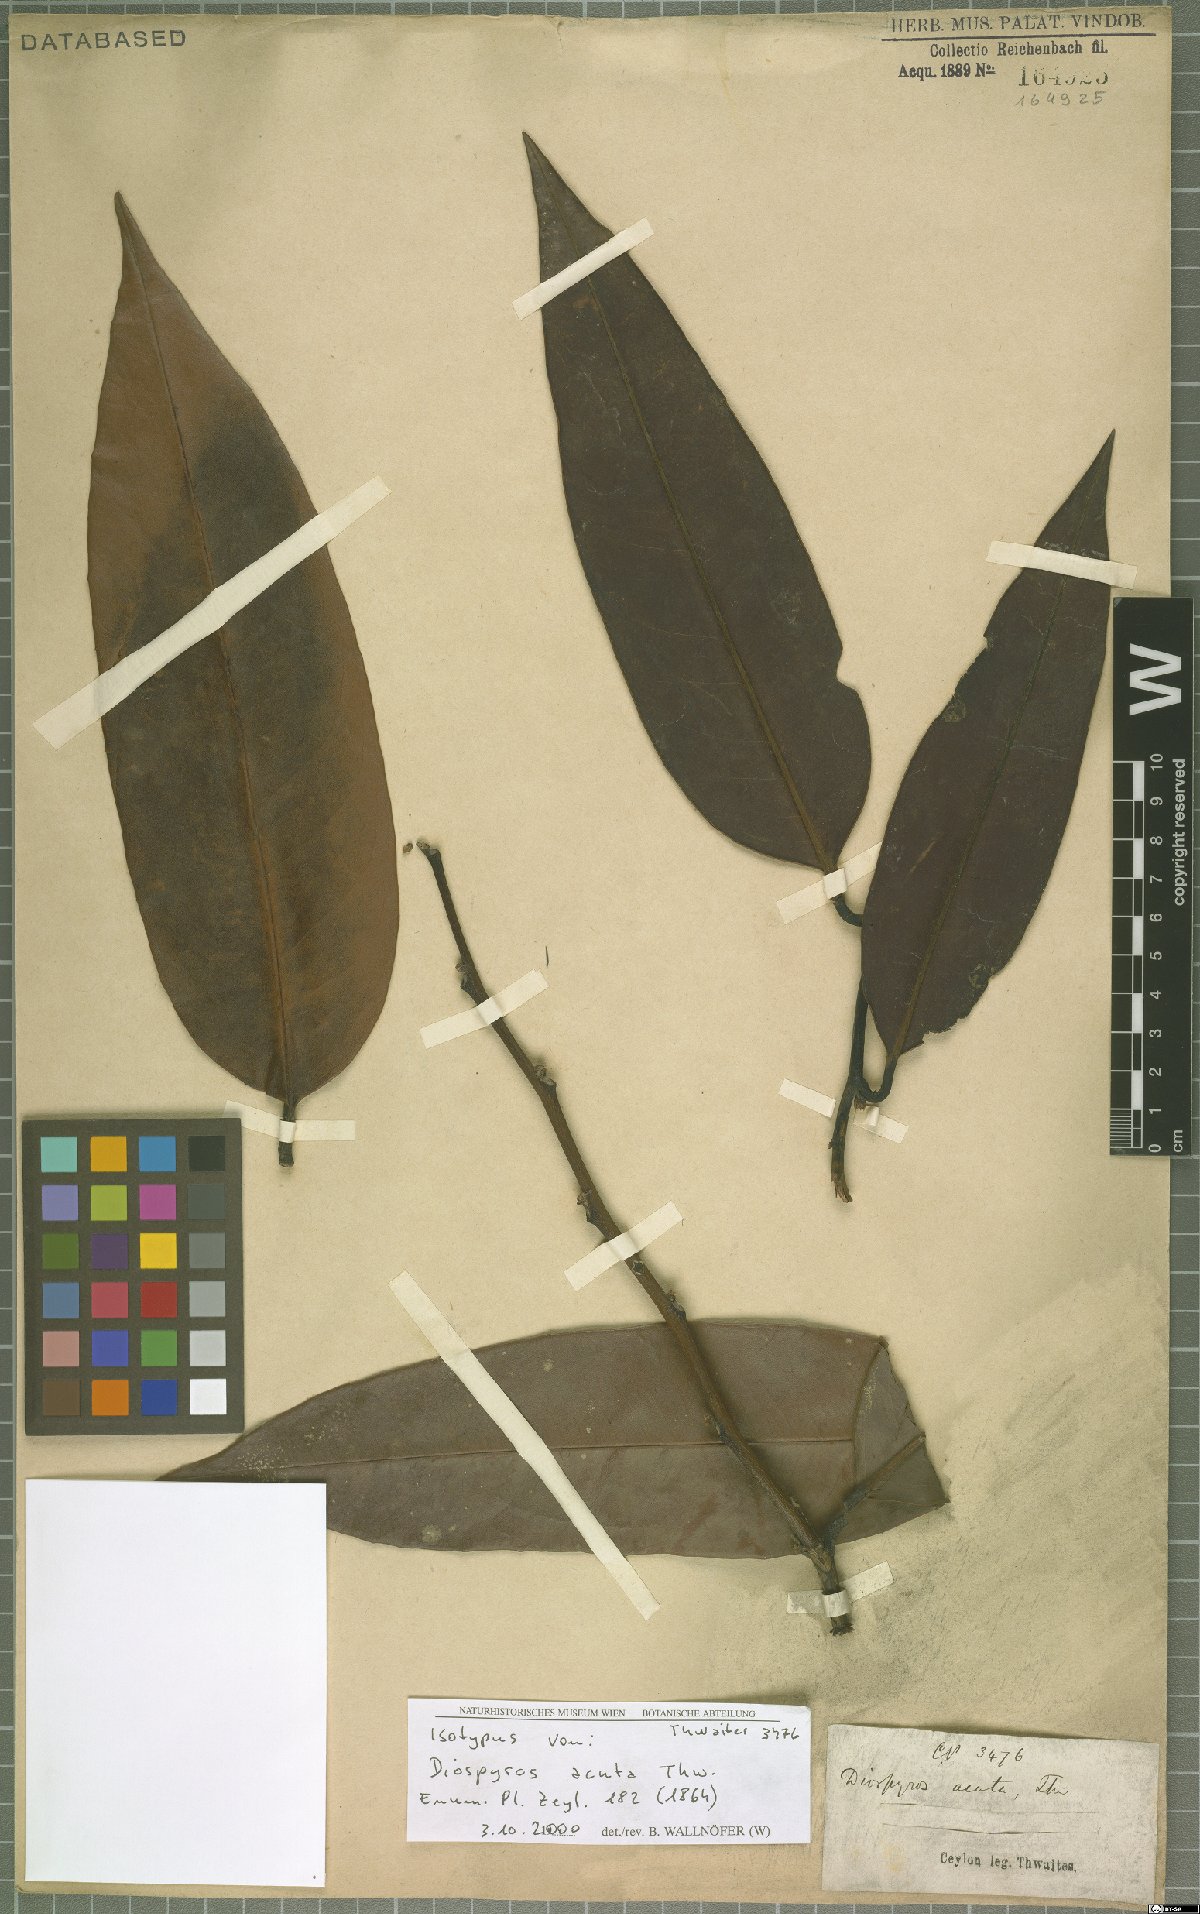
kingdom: Plantae
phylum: Tracheophyta
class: Magnoliopsida
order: Ericales
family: Ebenaceae
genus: Diospyros
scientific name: Diospyros acuta
